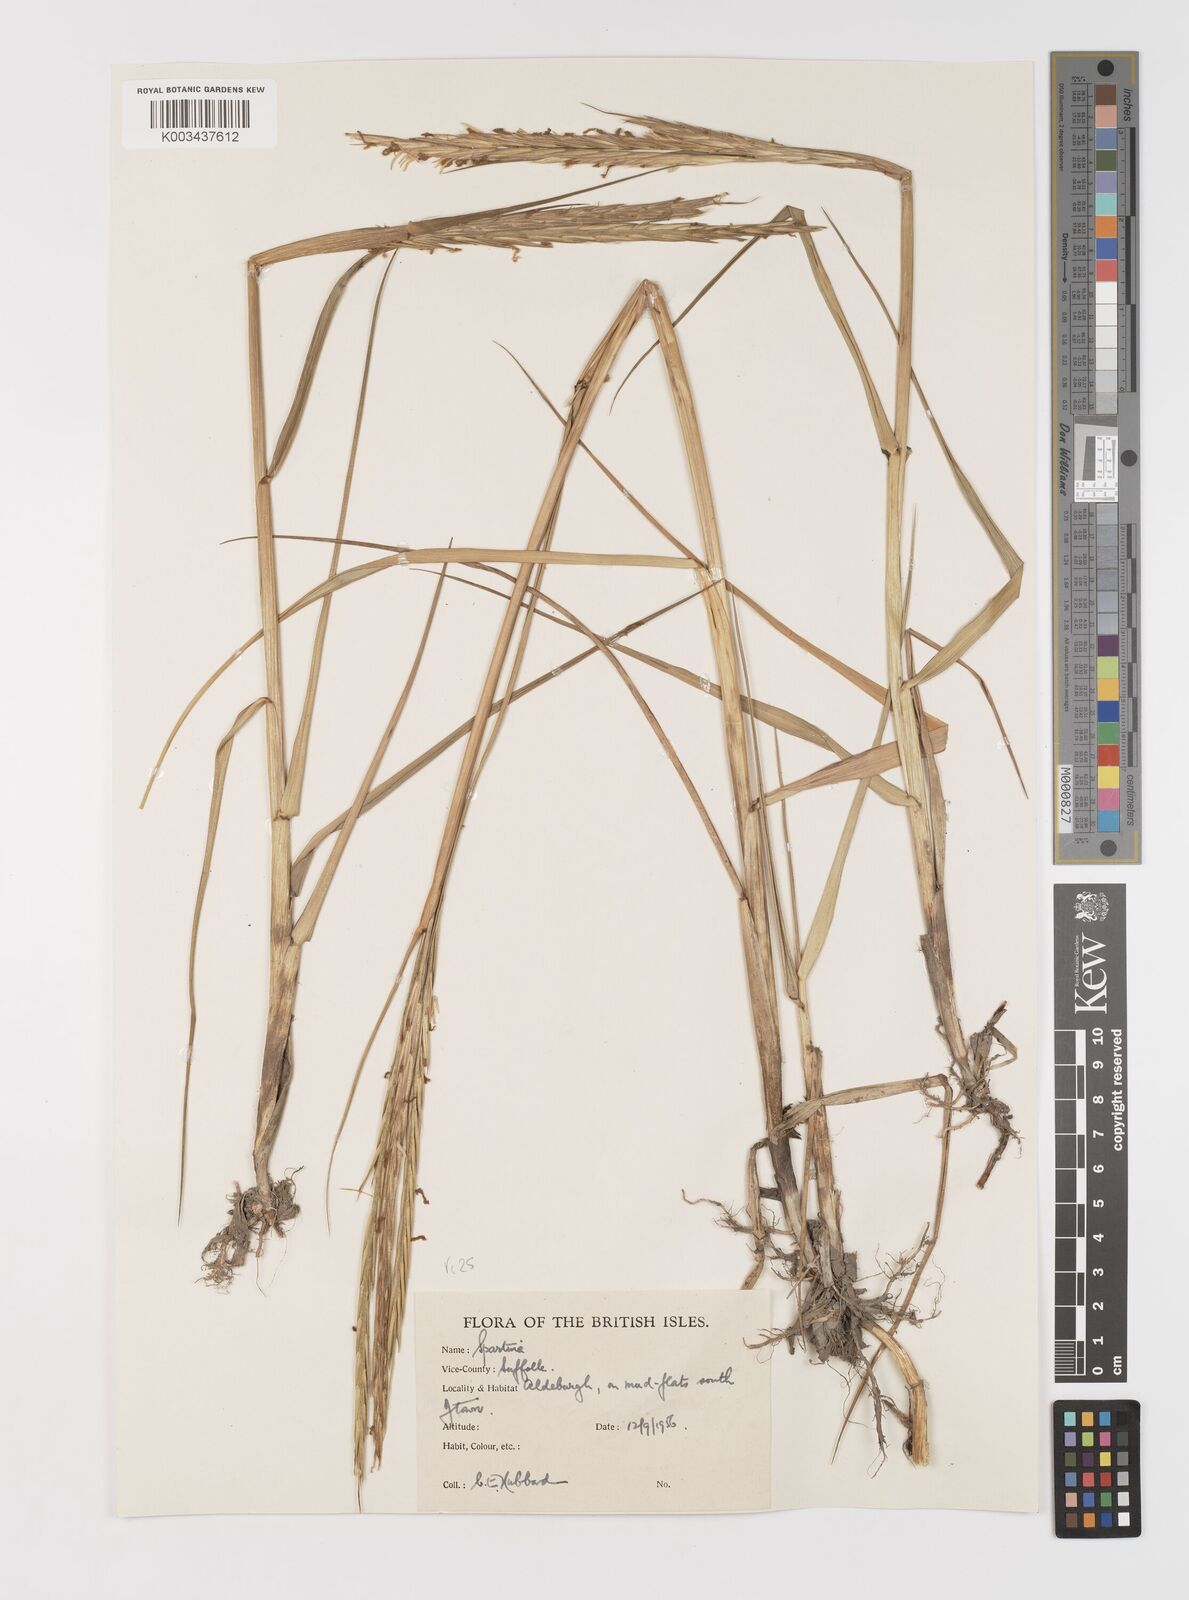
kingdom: Plantae
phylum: Tracheophyta
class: Liliopsida
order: Poales
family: Poaceae
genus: Sporobolus
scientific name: Sporobolus anglicus
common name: English cordgrass
